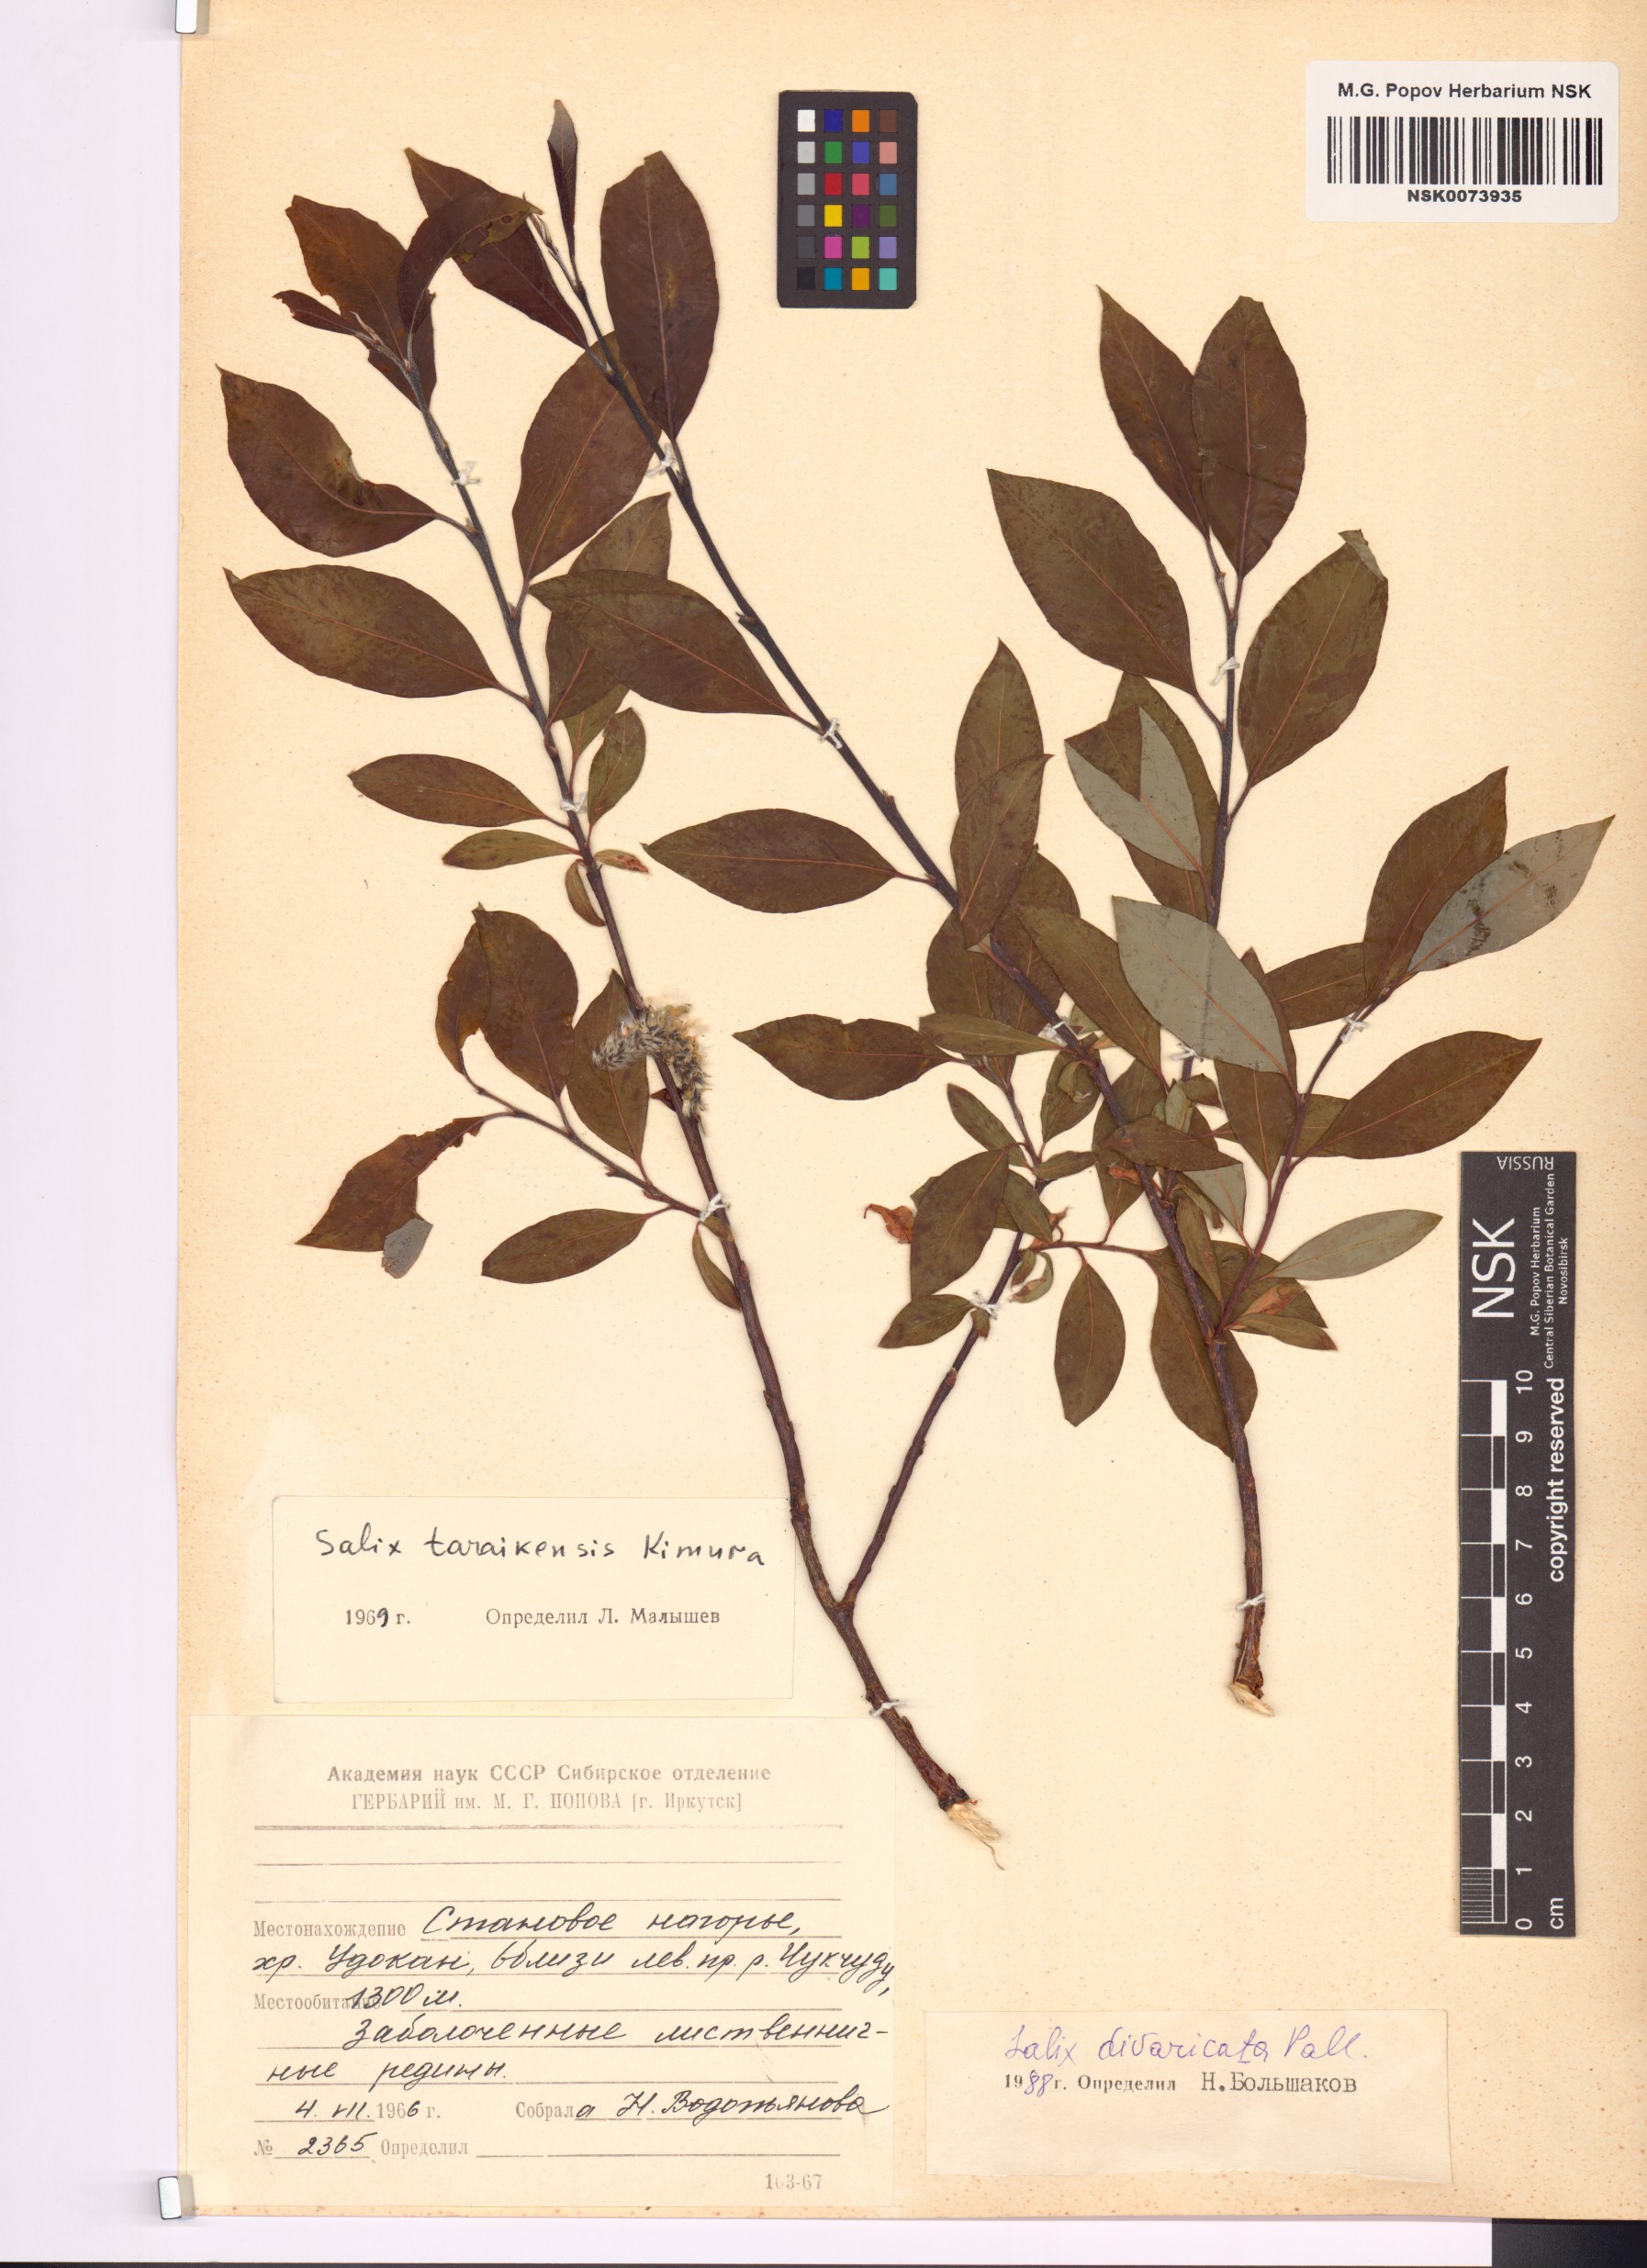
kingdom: Plantae
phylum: Tracheophyta
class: Magnoliopsida
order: Malpighiales
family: Salicaceae
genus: Salix
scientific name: Salix divaricata
